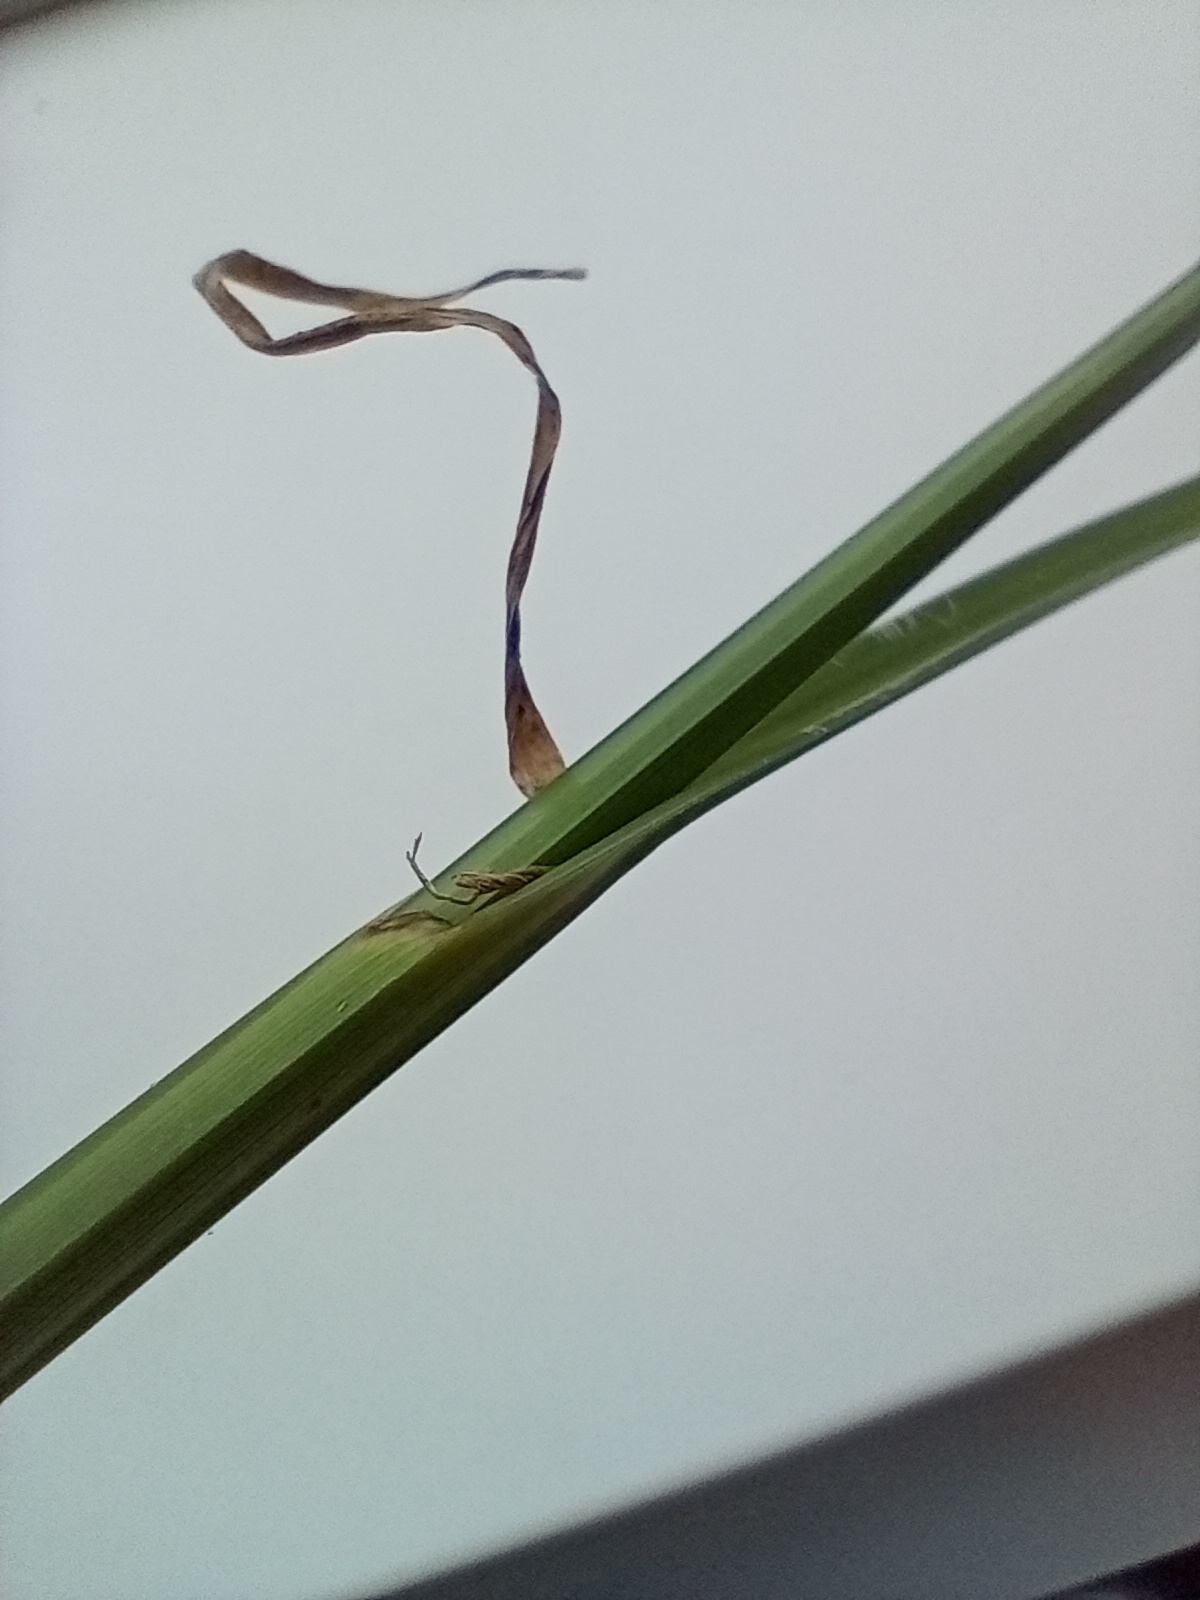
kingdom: Plantae
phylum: Tracheophyta
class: Liliopsida
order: Poales
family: Cyperaceae
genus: Bolboschoenus
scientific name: Bolboschoenus maritimus
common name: Strand-kogleaks
